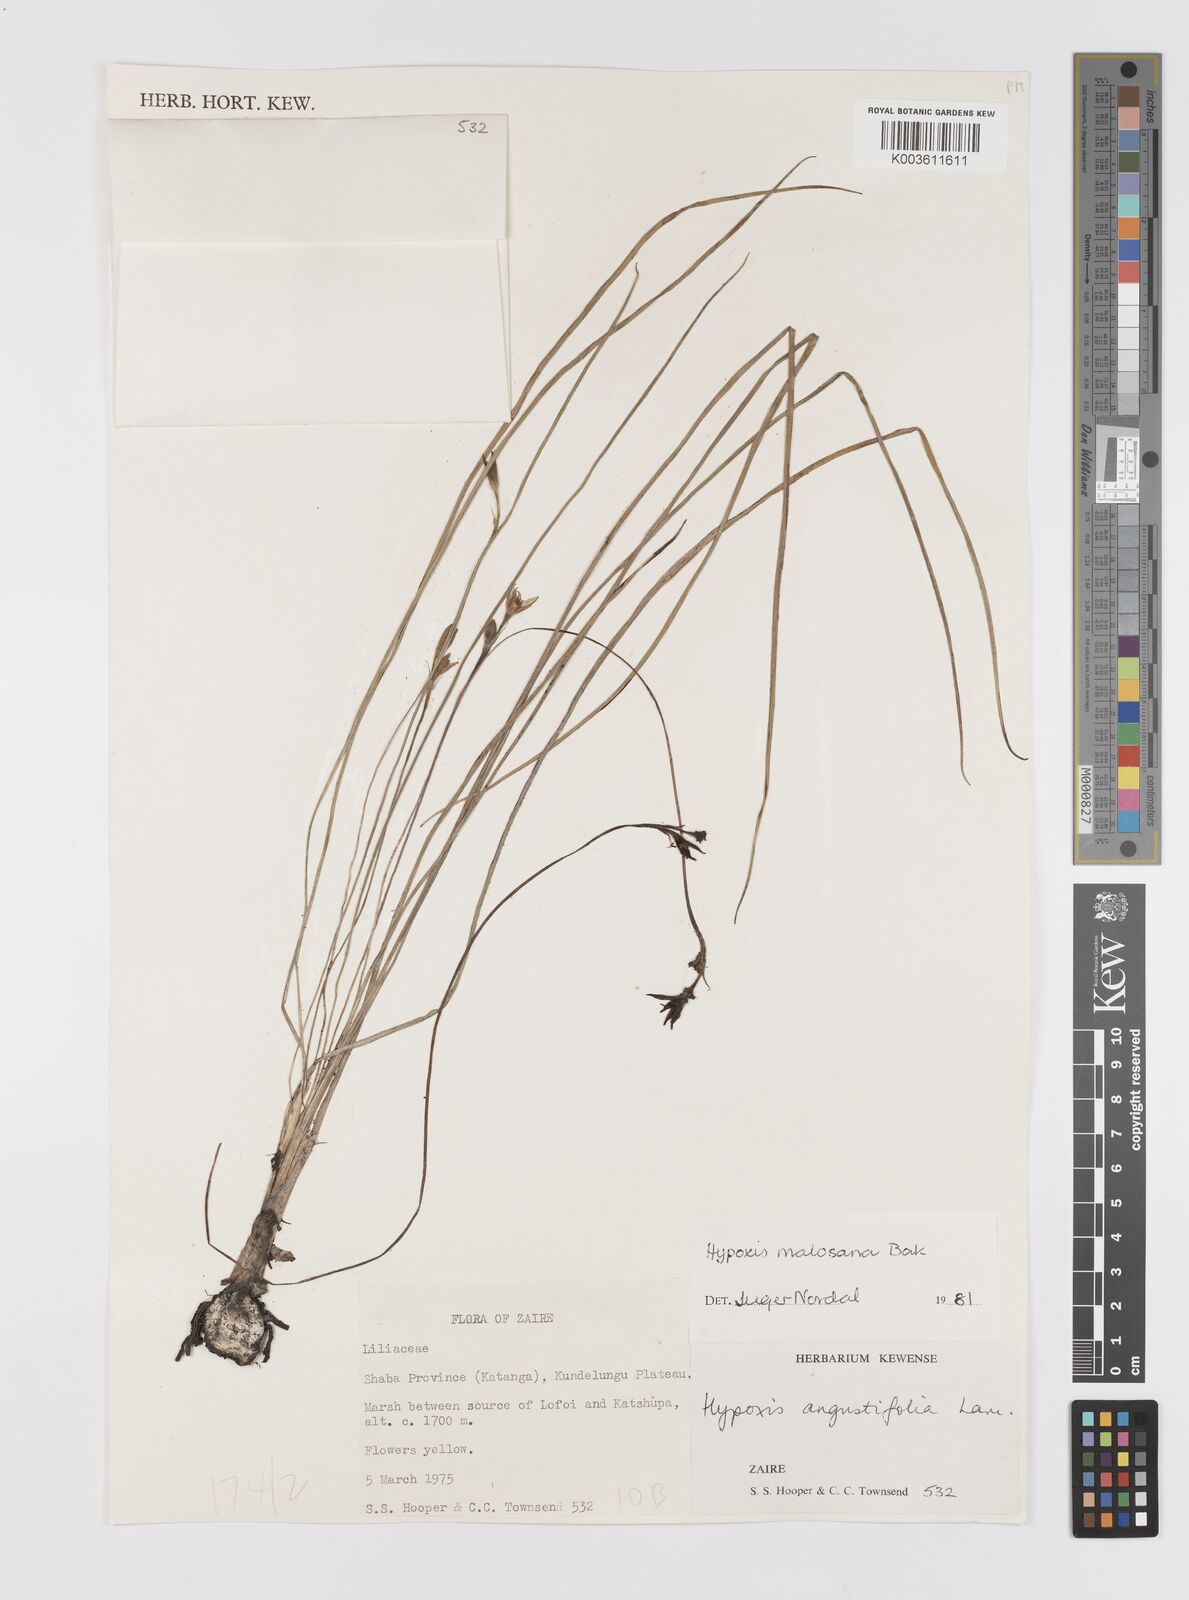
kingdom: Plantae
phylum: Tracheophyta
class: Liliopsida
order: Asparagales
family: Hypoxidaceae
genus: Hypoxis
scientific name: Hypoxis filiformis
